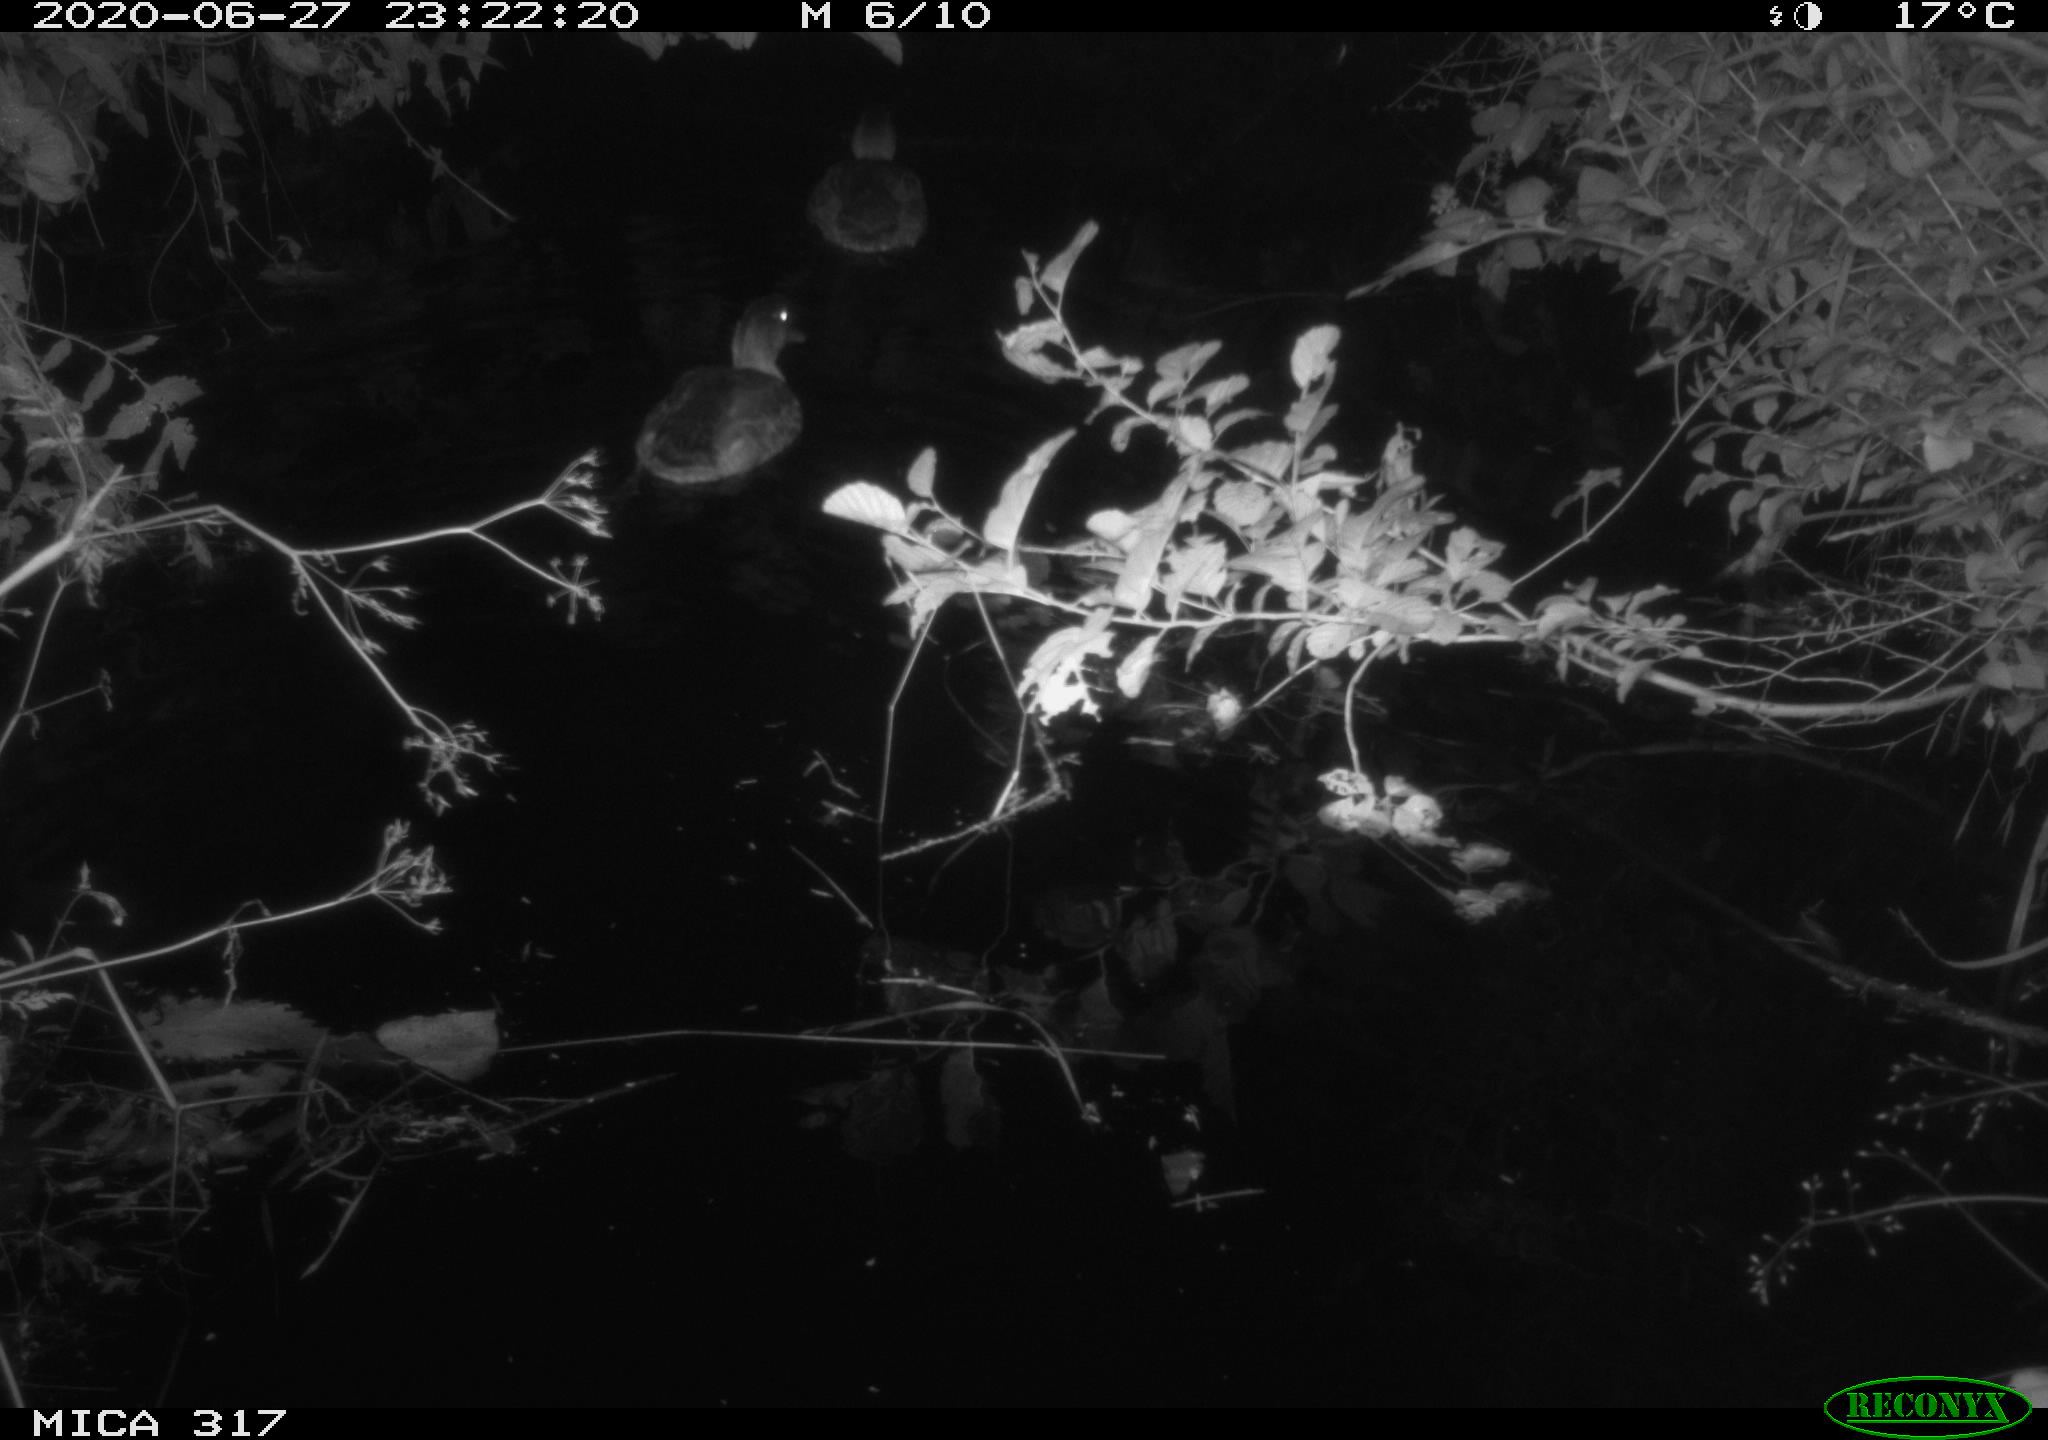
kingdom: Animalia
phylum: Chordata
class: Aves
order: Anseriformes
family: Anatidae
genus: Anas
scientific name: Anas platyrhynchos
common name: Mallard
